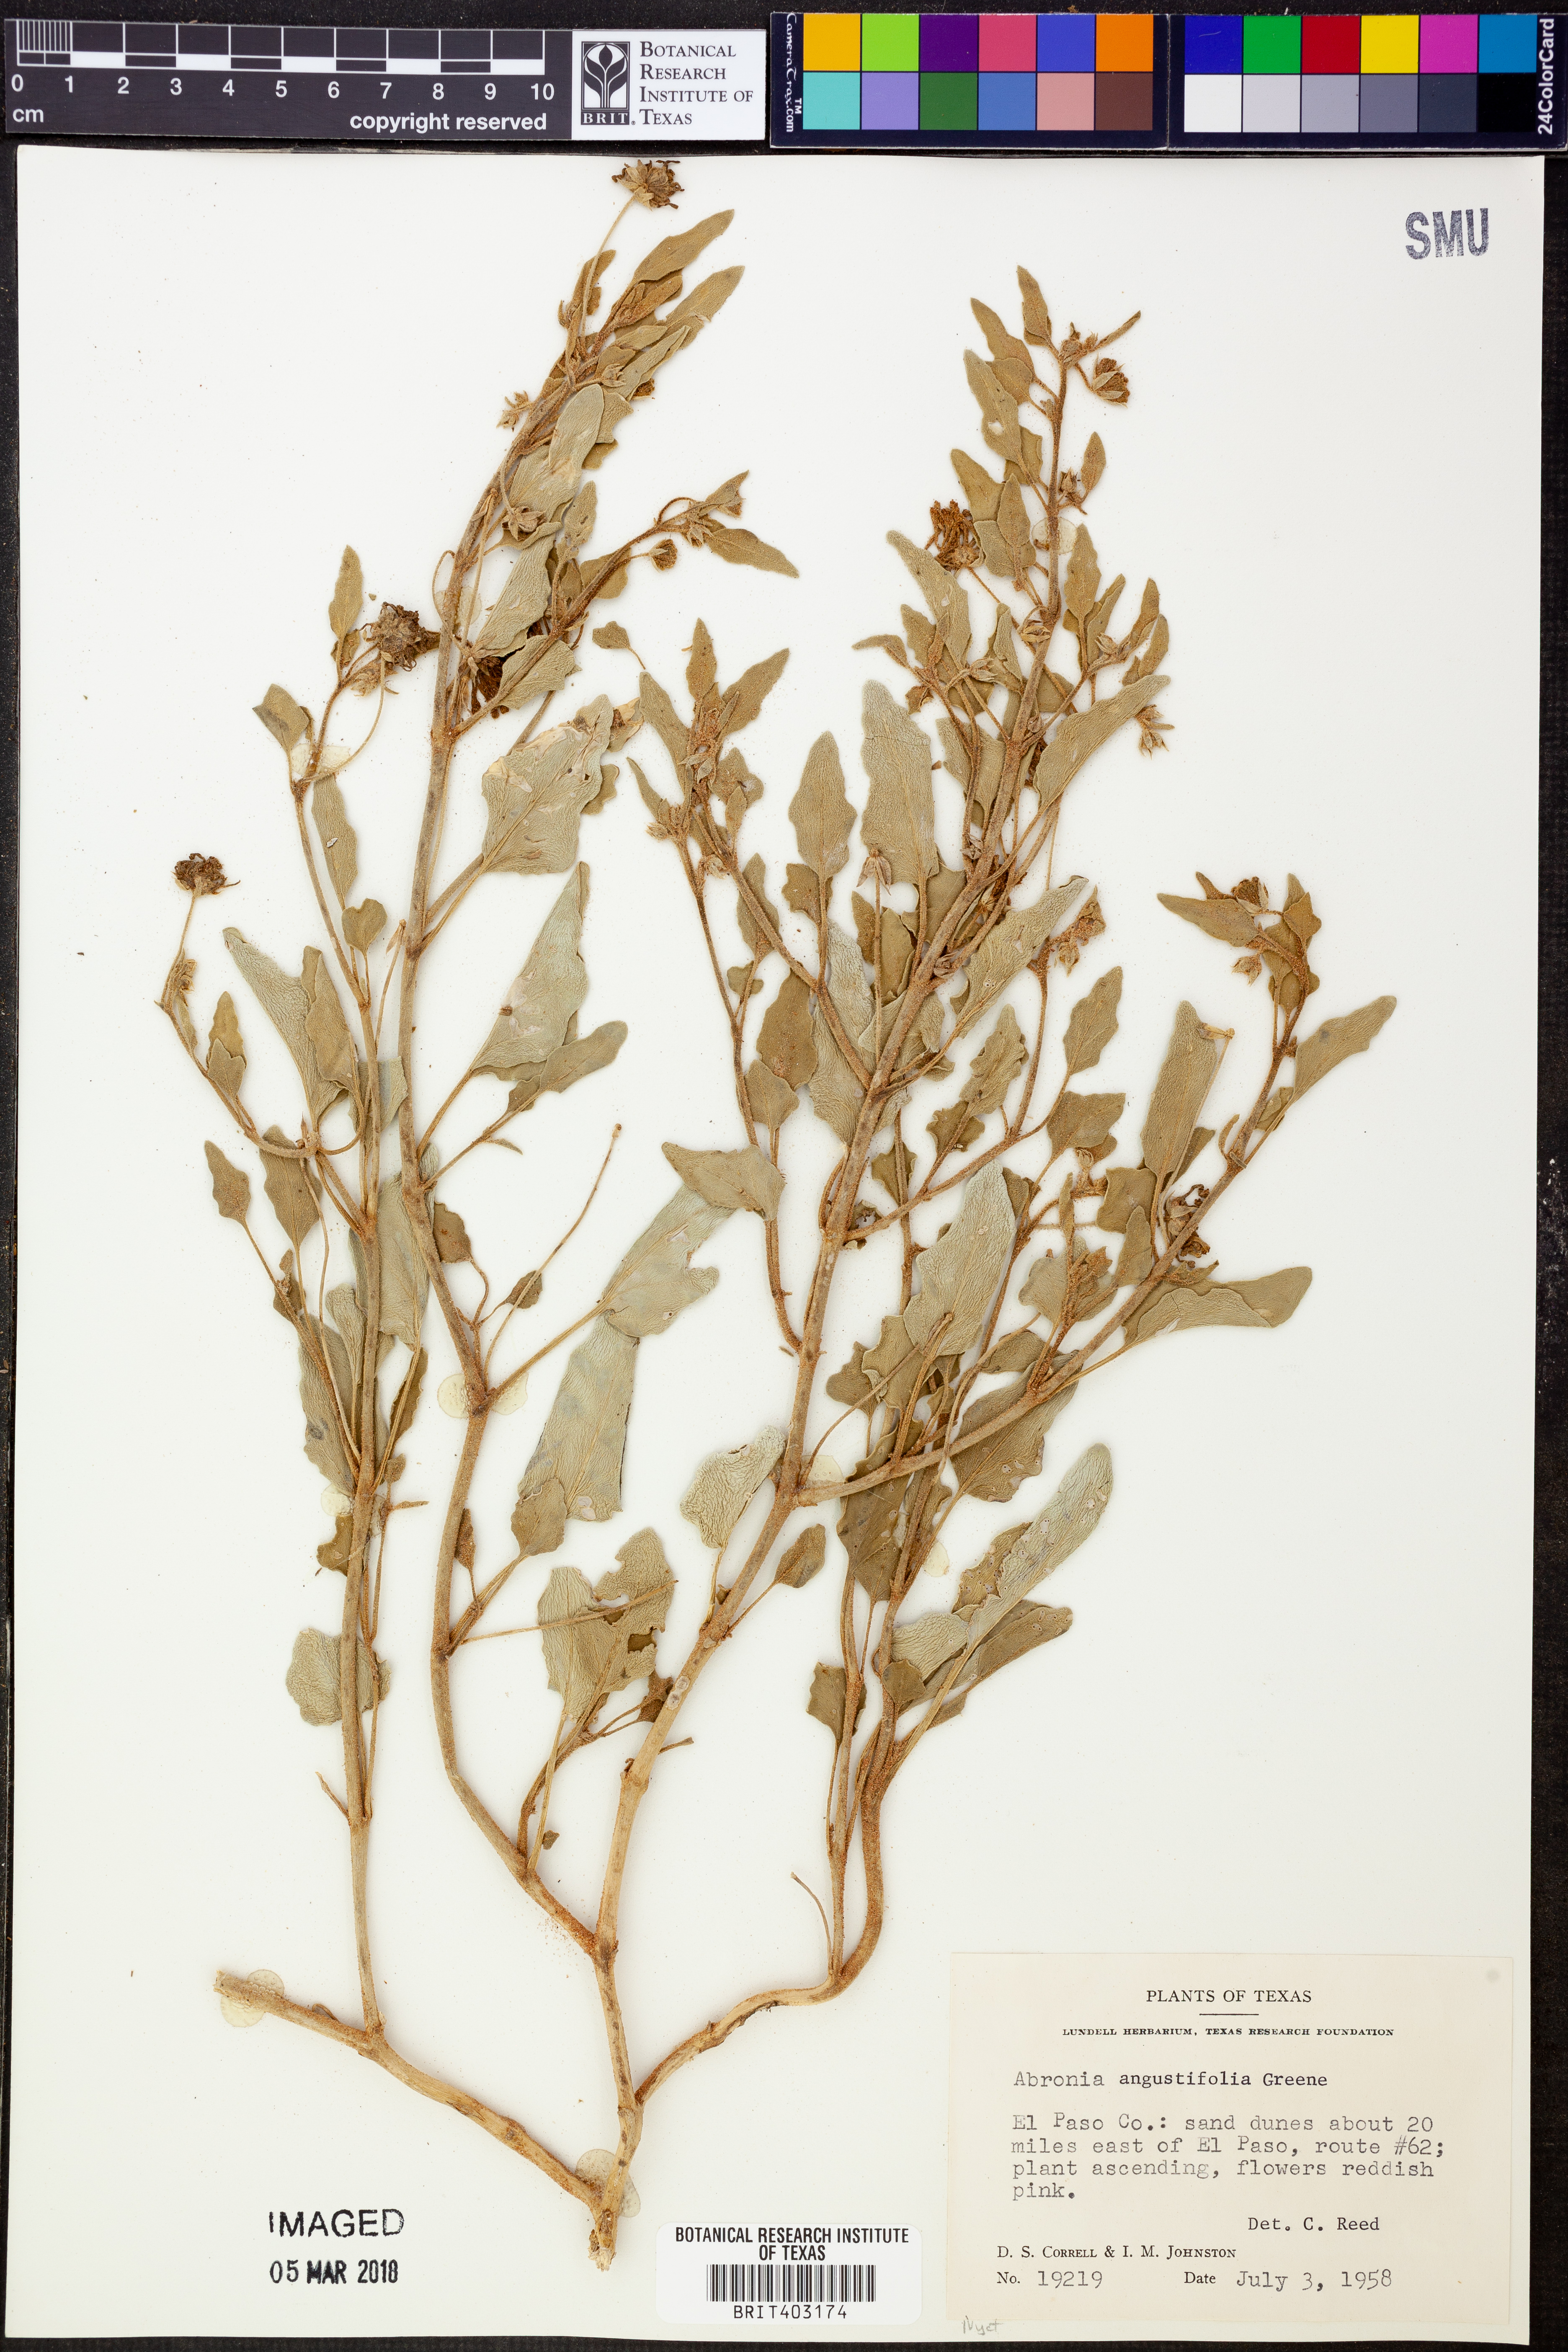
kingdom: Plantae
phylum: Tracheophyta
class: Magnoliopsida
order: Caryophyllales
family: Nyctaginaceae
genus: Abronia
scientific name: Abronia angustifolia
